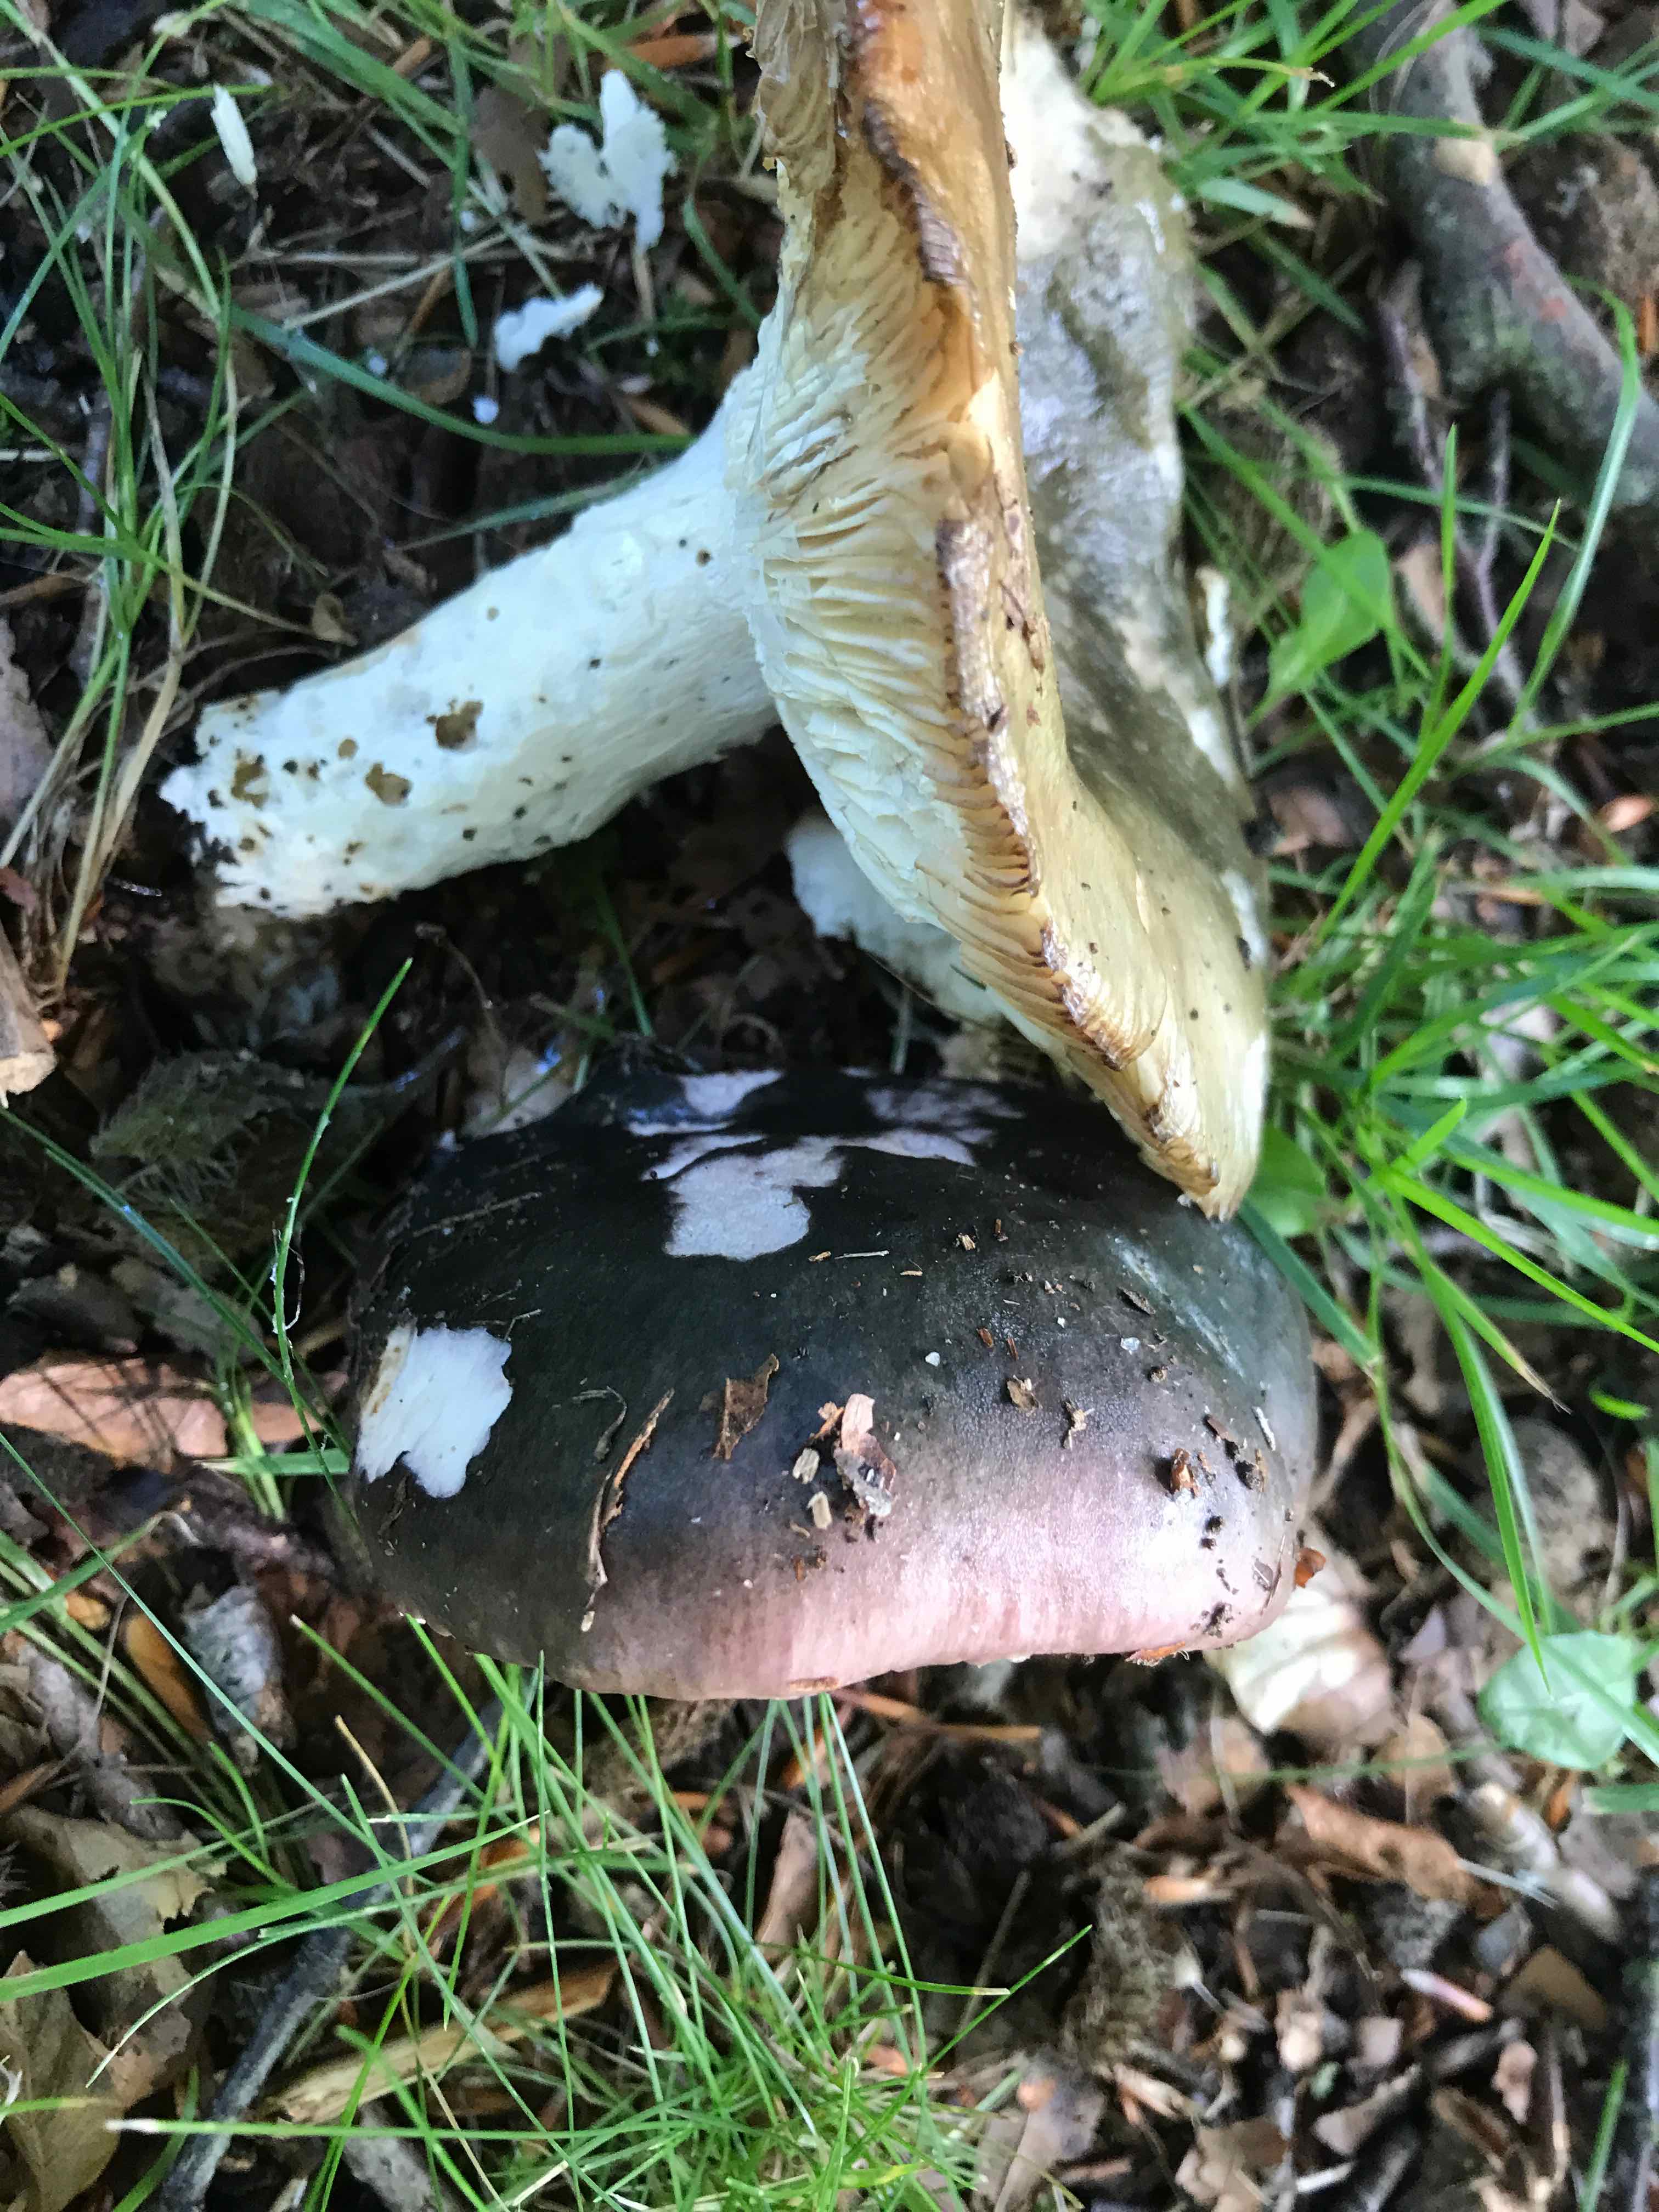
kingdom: Fungi
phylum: Basidiomycota
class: Agaricomycetes
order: Russulales
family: Russulaceae
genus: Russula
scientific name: Russula cyanoxantha
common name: broget skørhat
